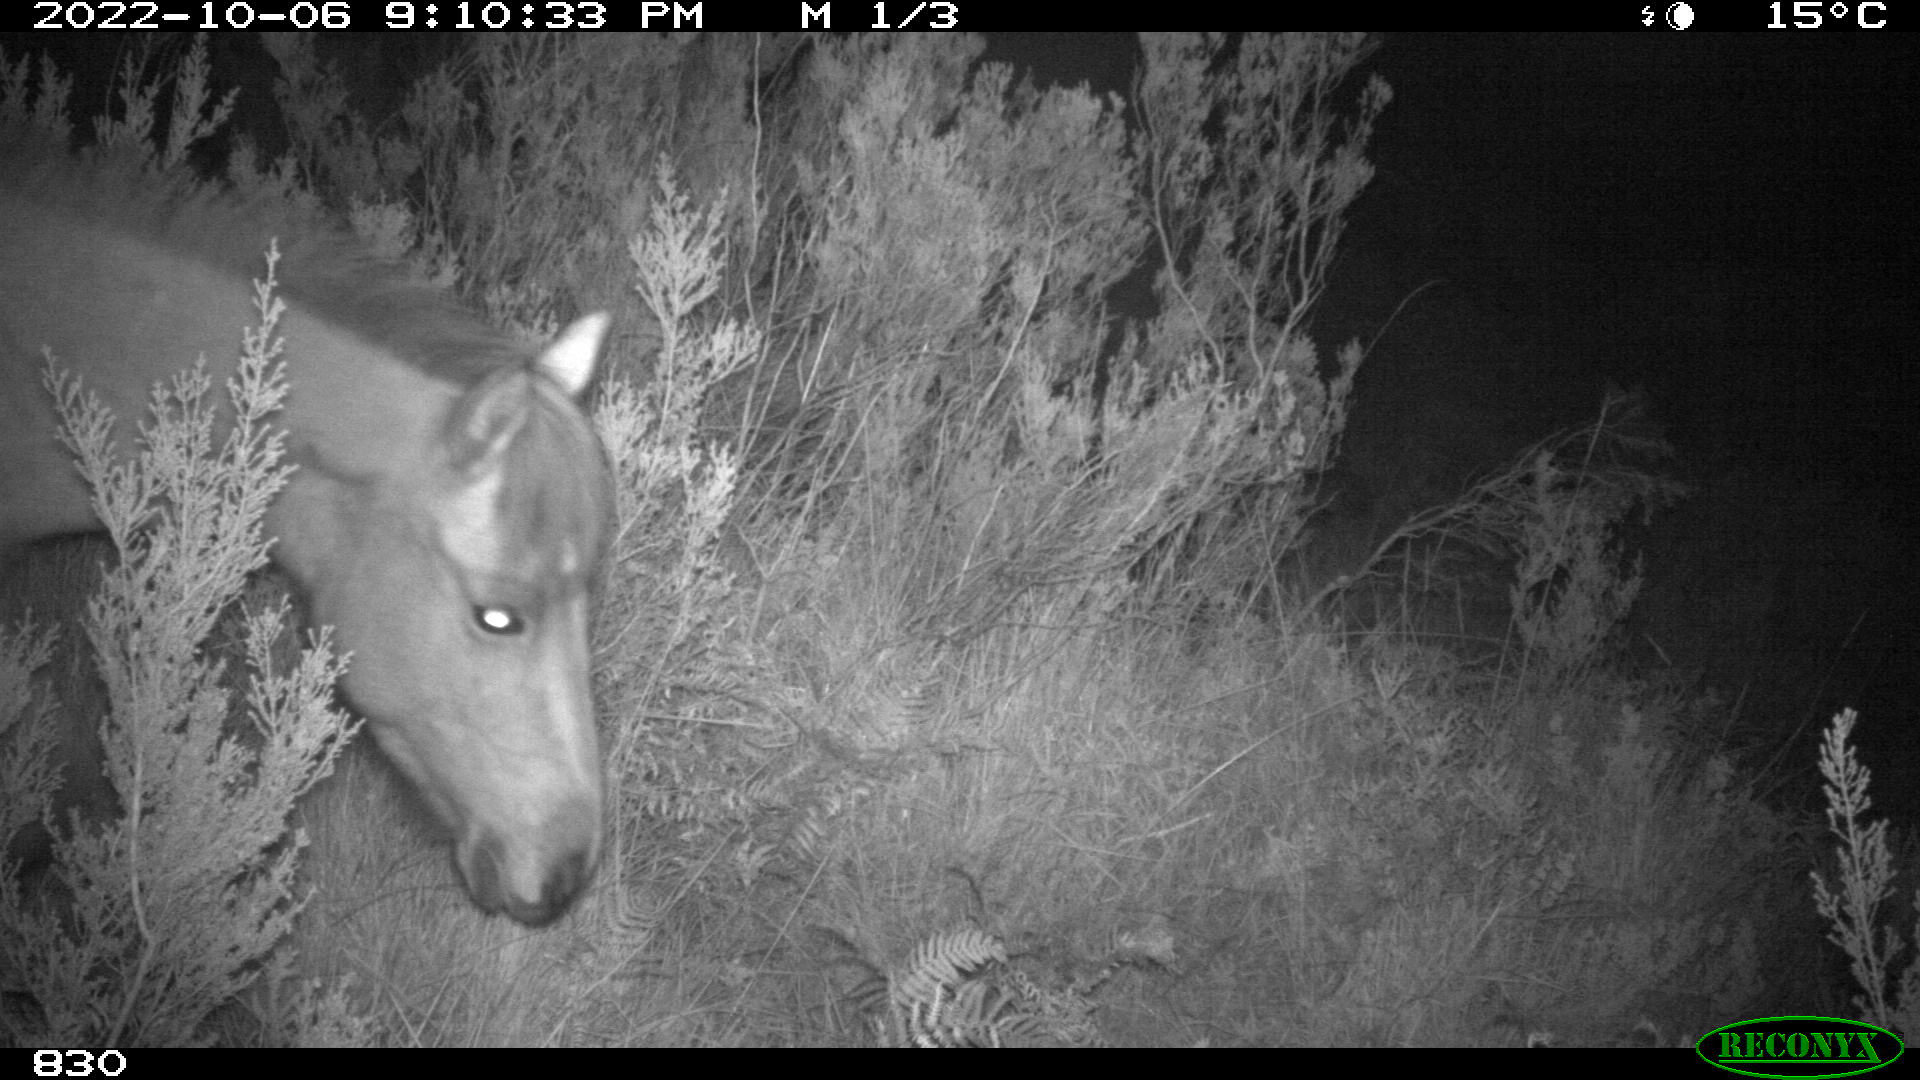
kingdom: Animalia
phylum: Chordata
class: Mammalia
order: Perissodactyla
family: Equidae
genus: Equus
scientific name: Equus caballus
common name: Horse
